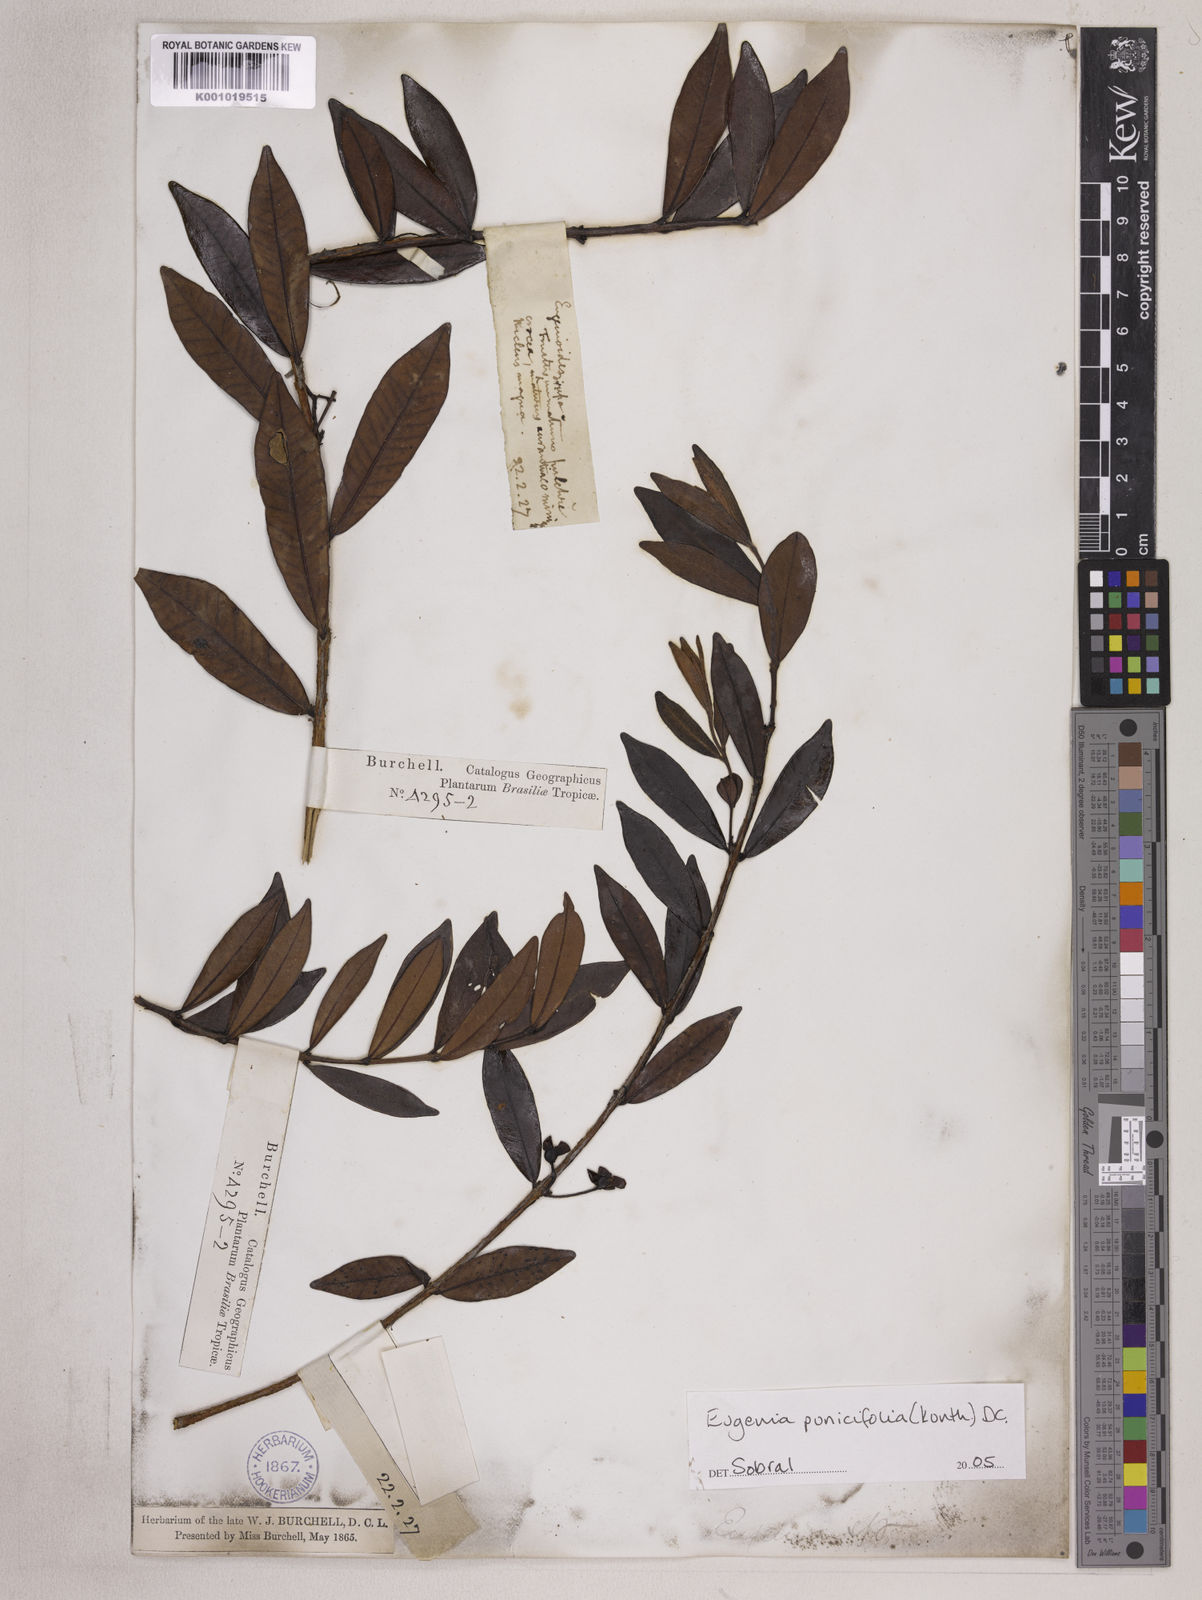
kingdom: Plantae
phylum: Tracheophyta
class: Magnoliopsida
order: Myrtales
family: Myrtaceae
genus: Eugenia
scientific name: Eugenia punicifolia
